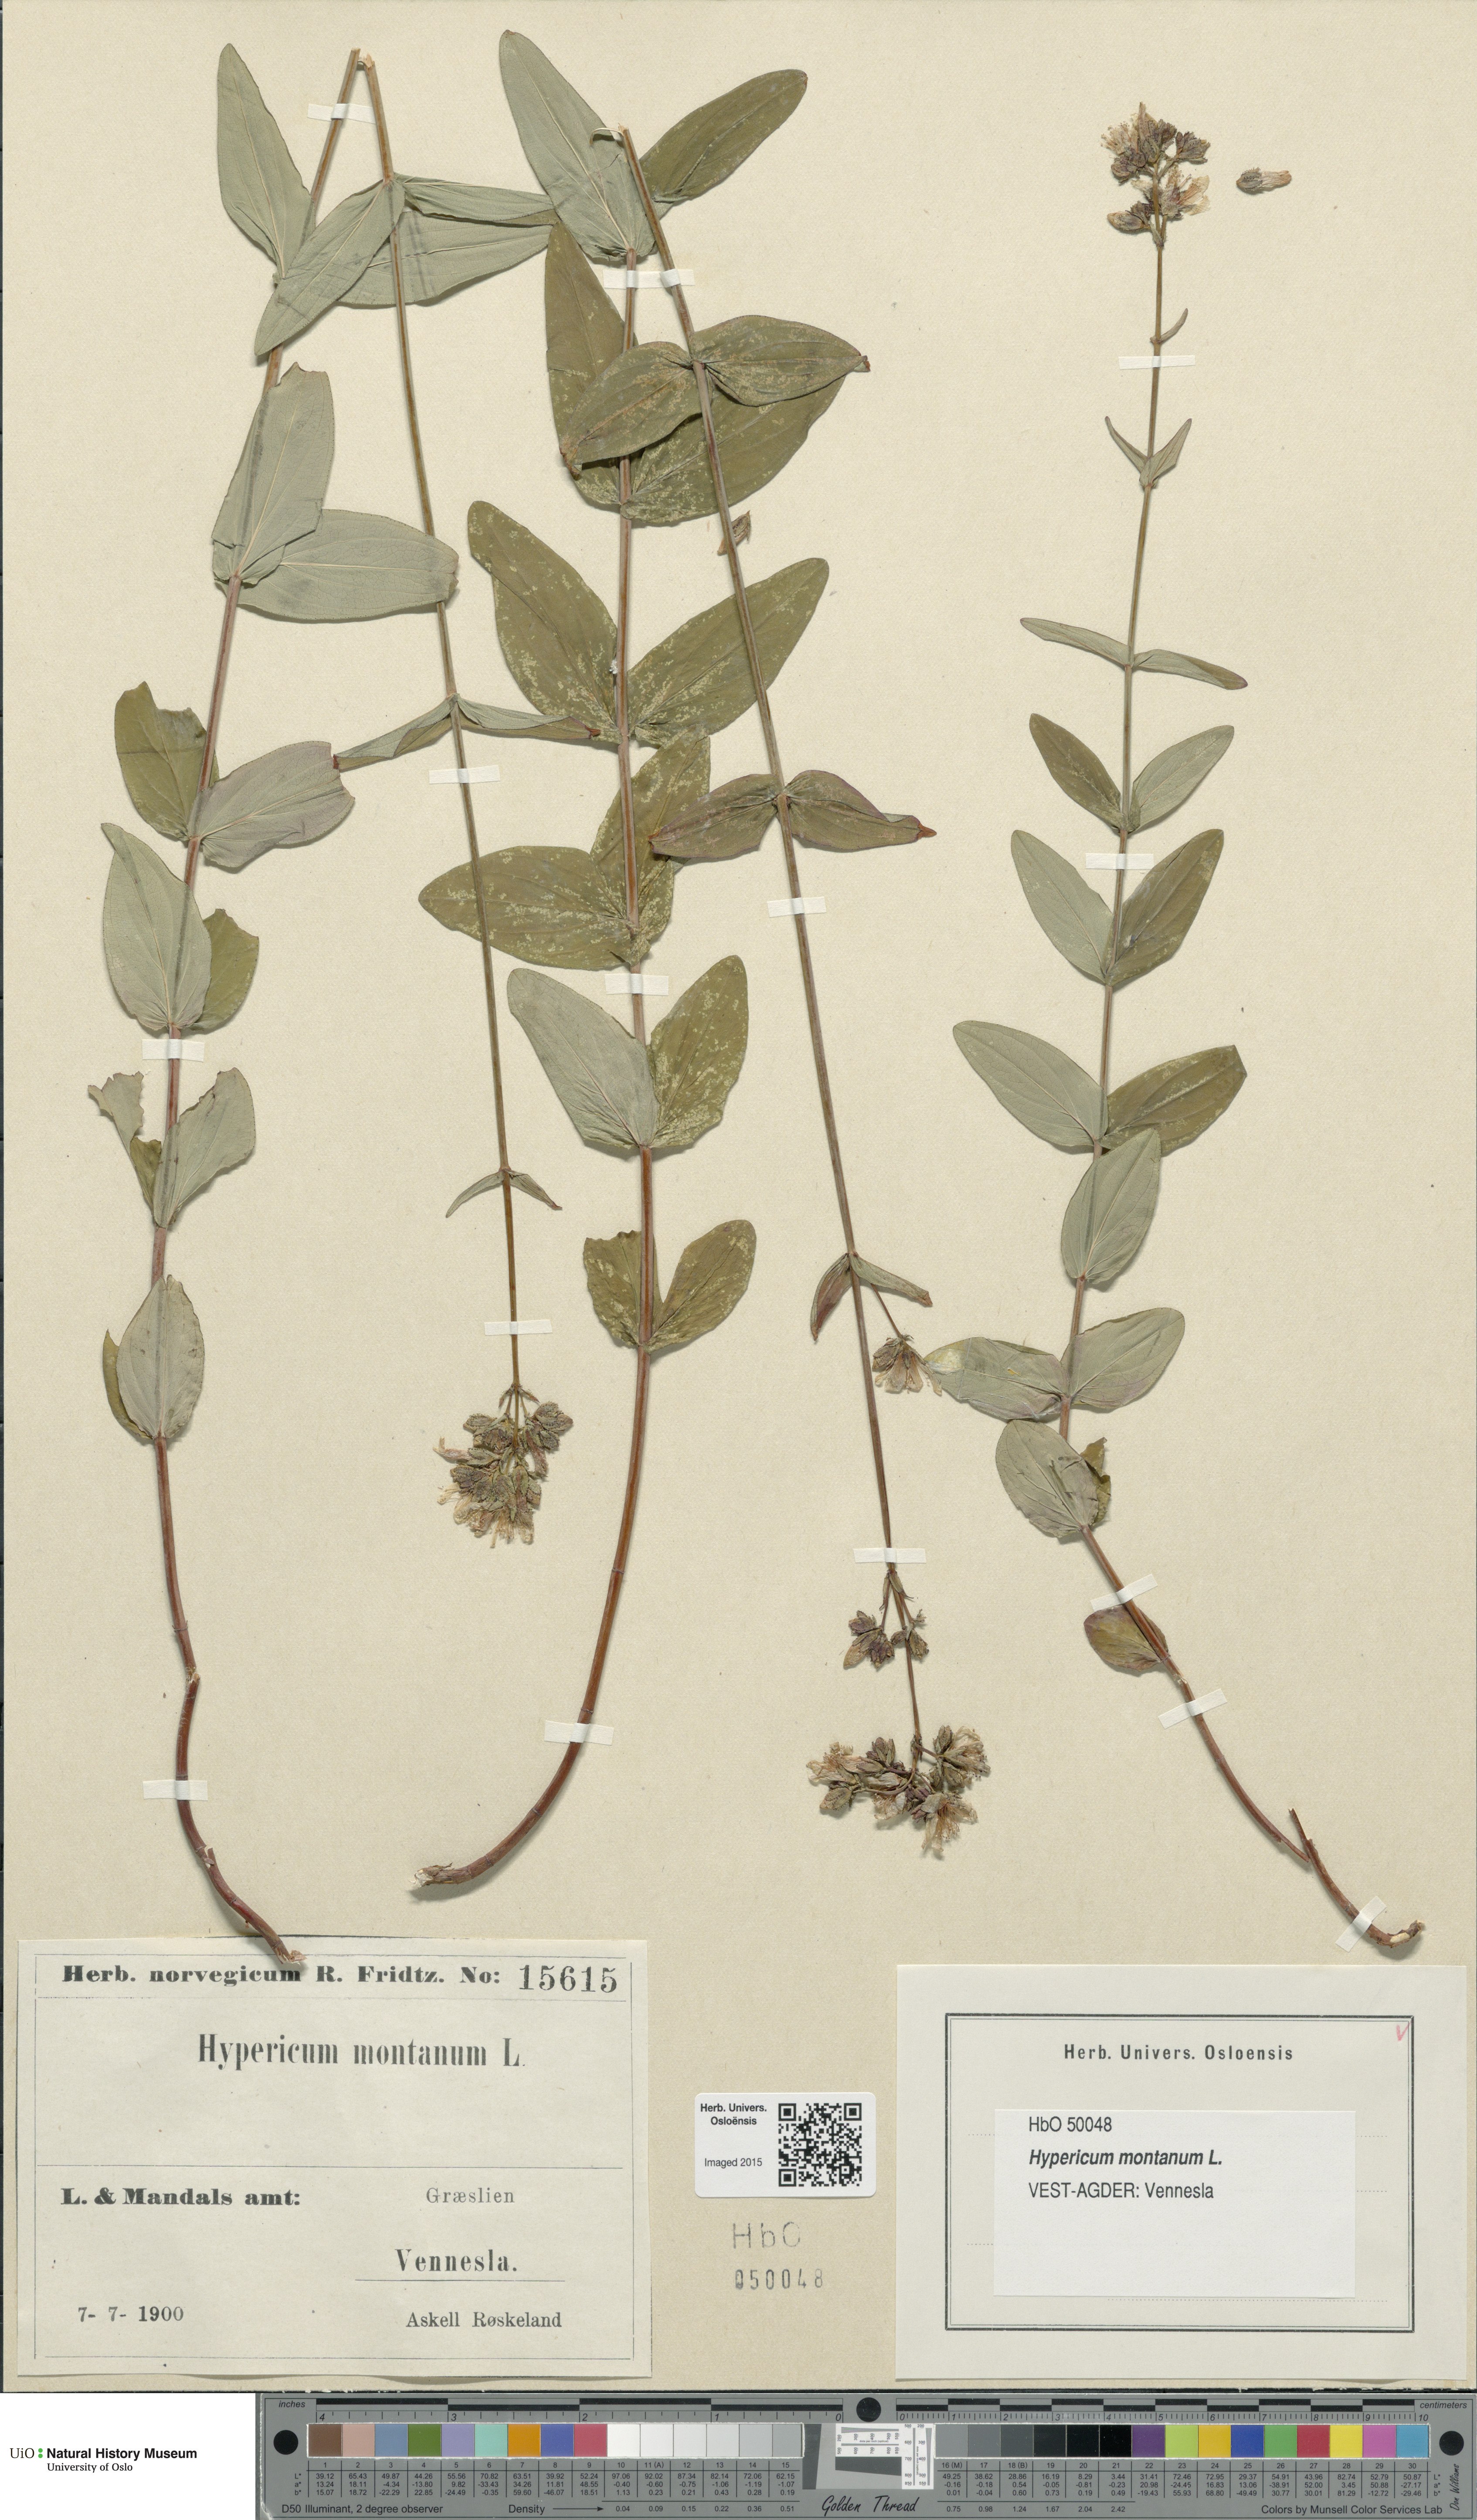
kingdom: Plantae
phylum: Tracheophyta
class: Magnoliopsida
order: Malpighiales
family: Hypericaceae
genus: Hypericum
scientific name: Hypericum montanum
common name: Pale st. john's-wort
